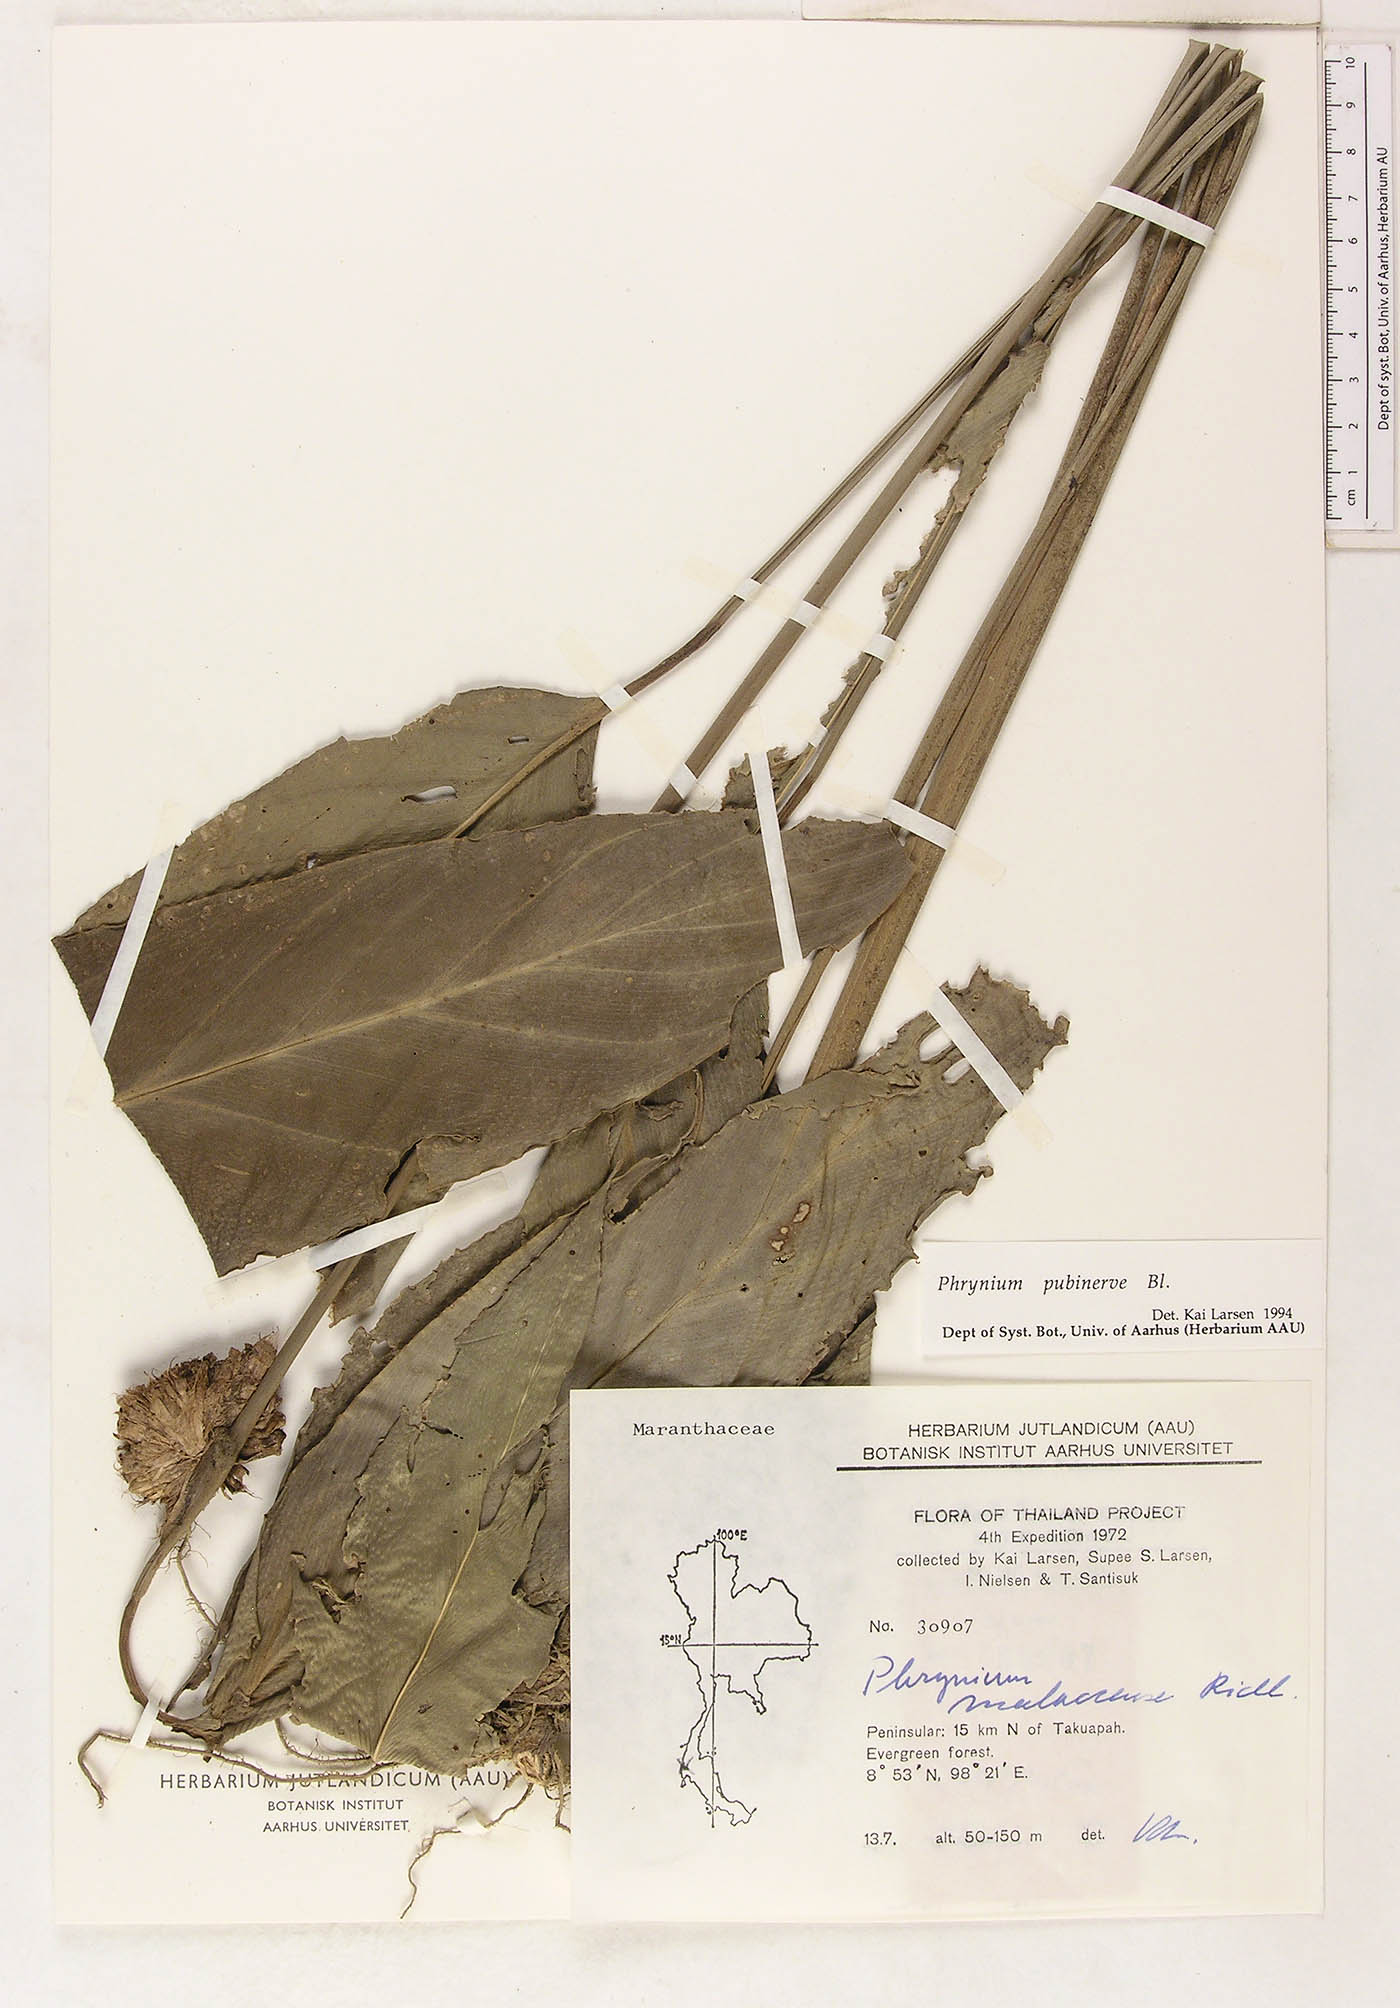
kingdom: Plantae
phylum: Tracheophyta
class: Liliopsida
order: Zingiberales
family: Marantaceae
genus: Phrynium
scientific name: Phrynium pubinerve
